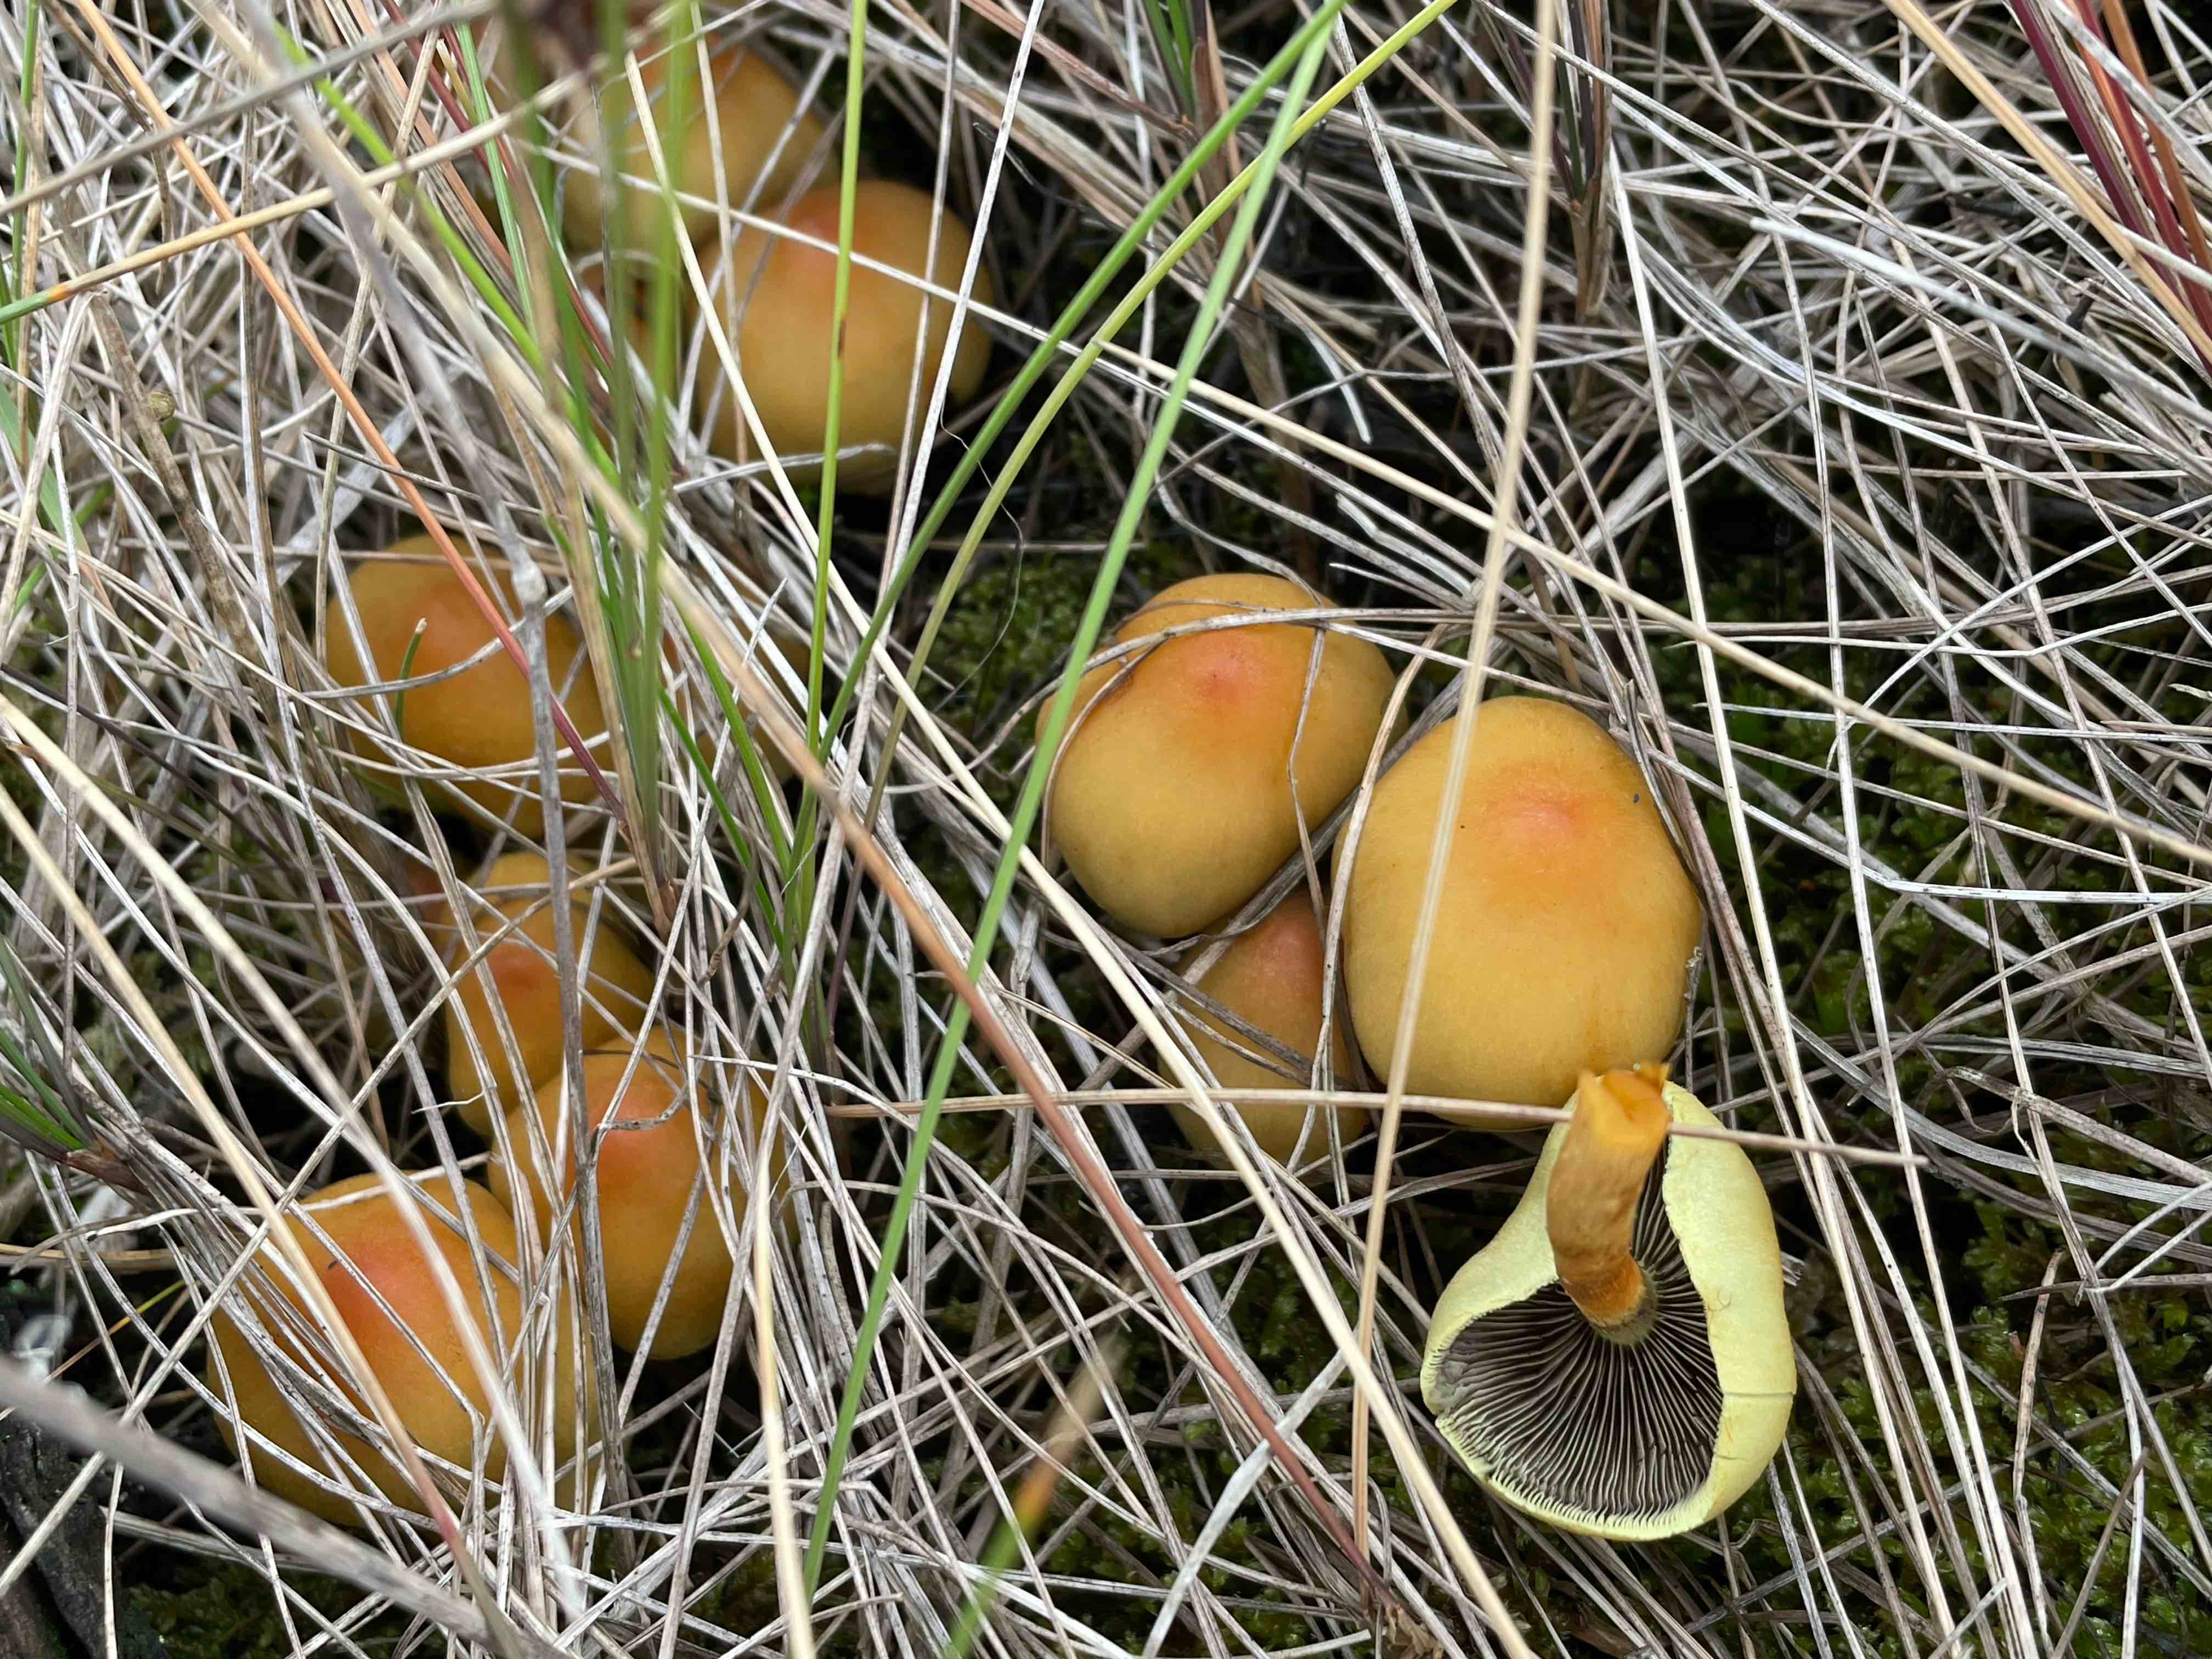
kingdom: Fungi
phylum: Basidiomycota
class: Agaricomycetes
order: Agaricales
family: Strophariaceae
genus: Hypholoma
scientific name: Hypholoma fasciculare
